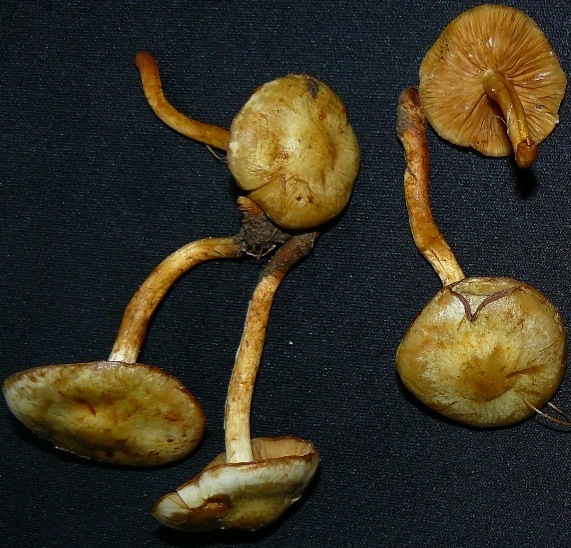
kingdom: Fungi
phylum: Basidiomycota
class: Agaricomycetes
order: Agaricales
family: Strophariaceae
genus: Pholiota
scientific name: Pholiota gummosa
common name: grøngul skælhat
